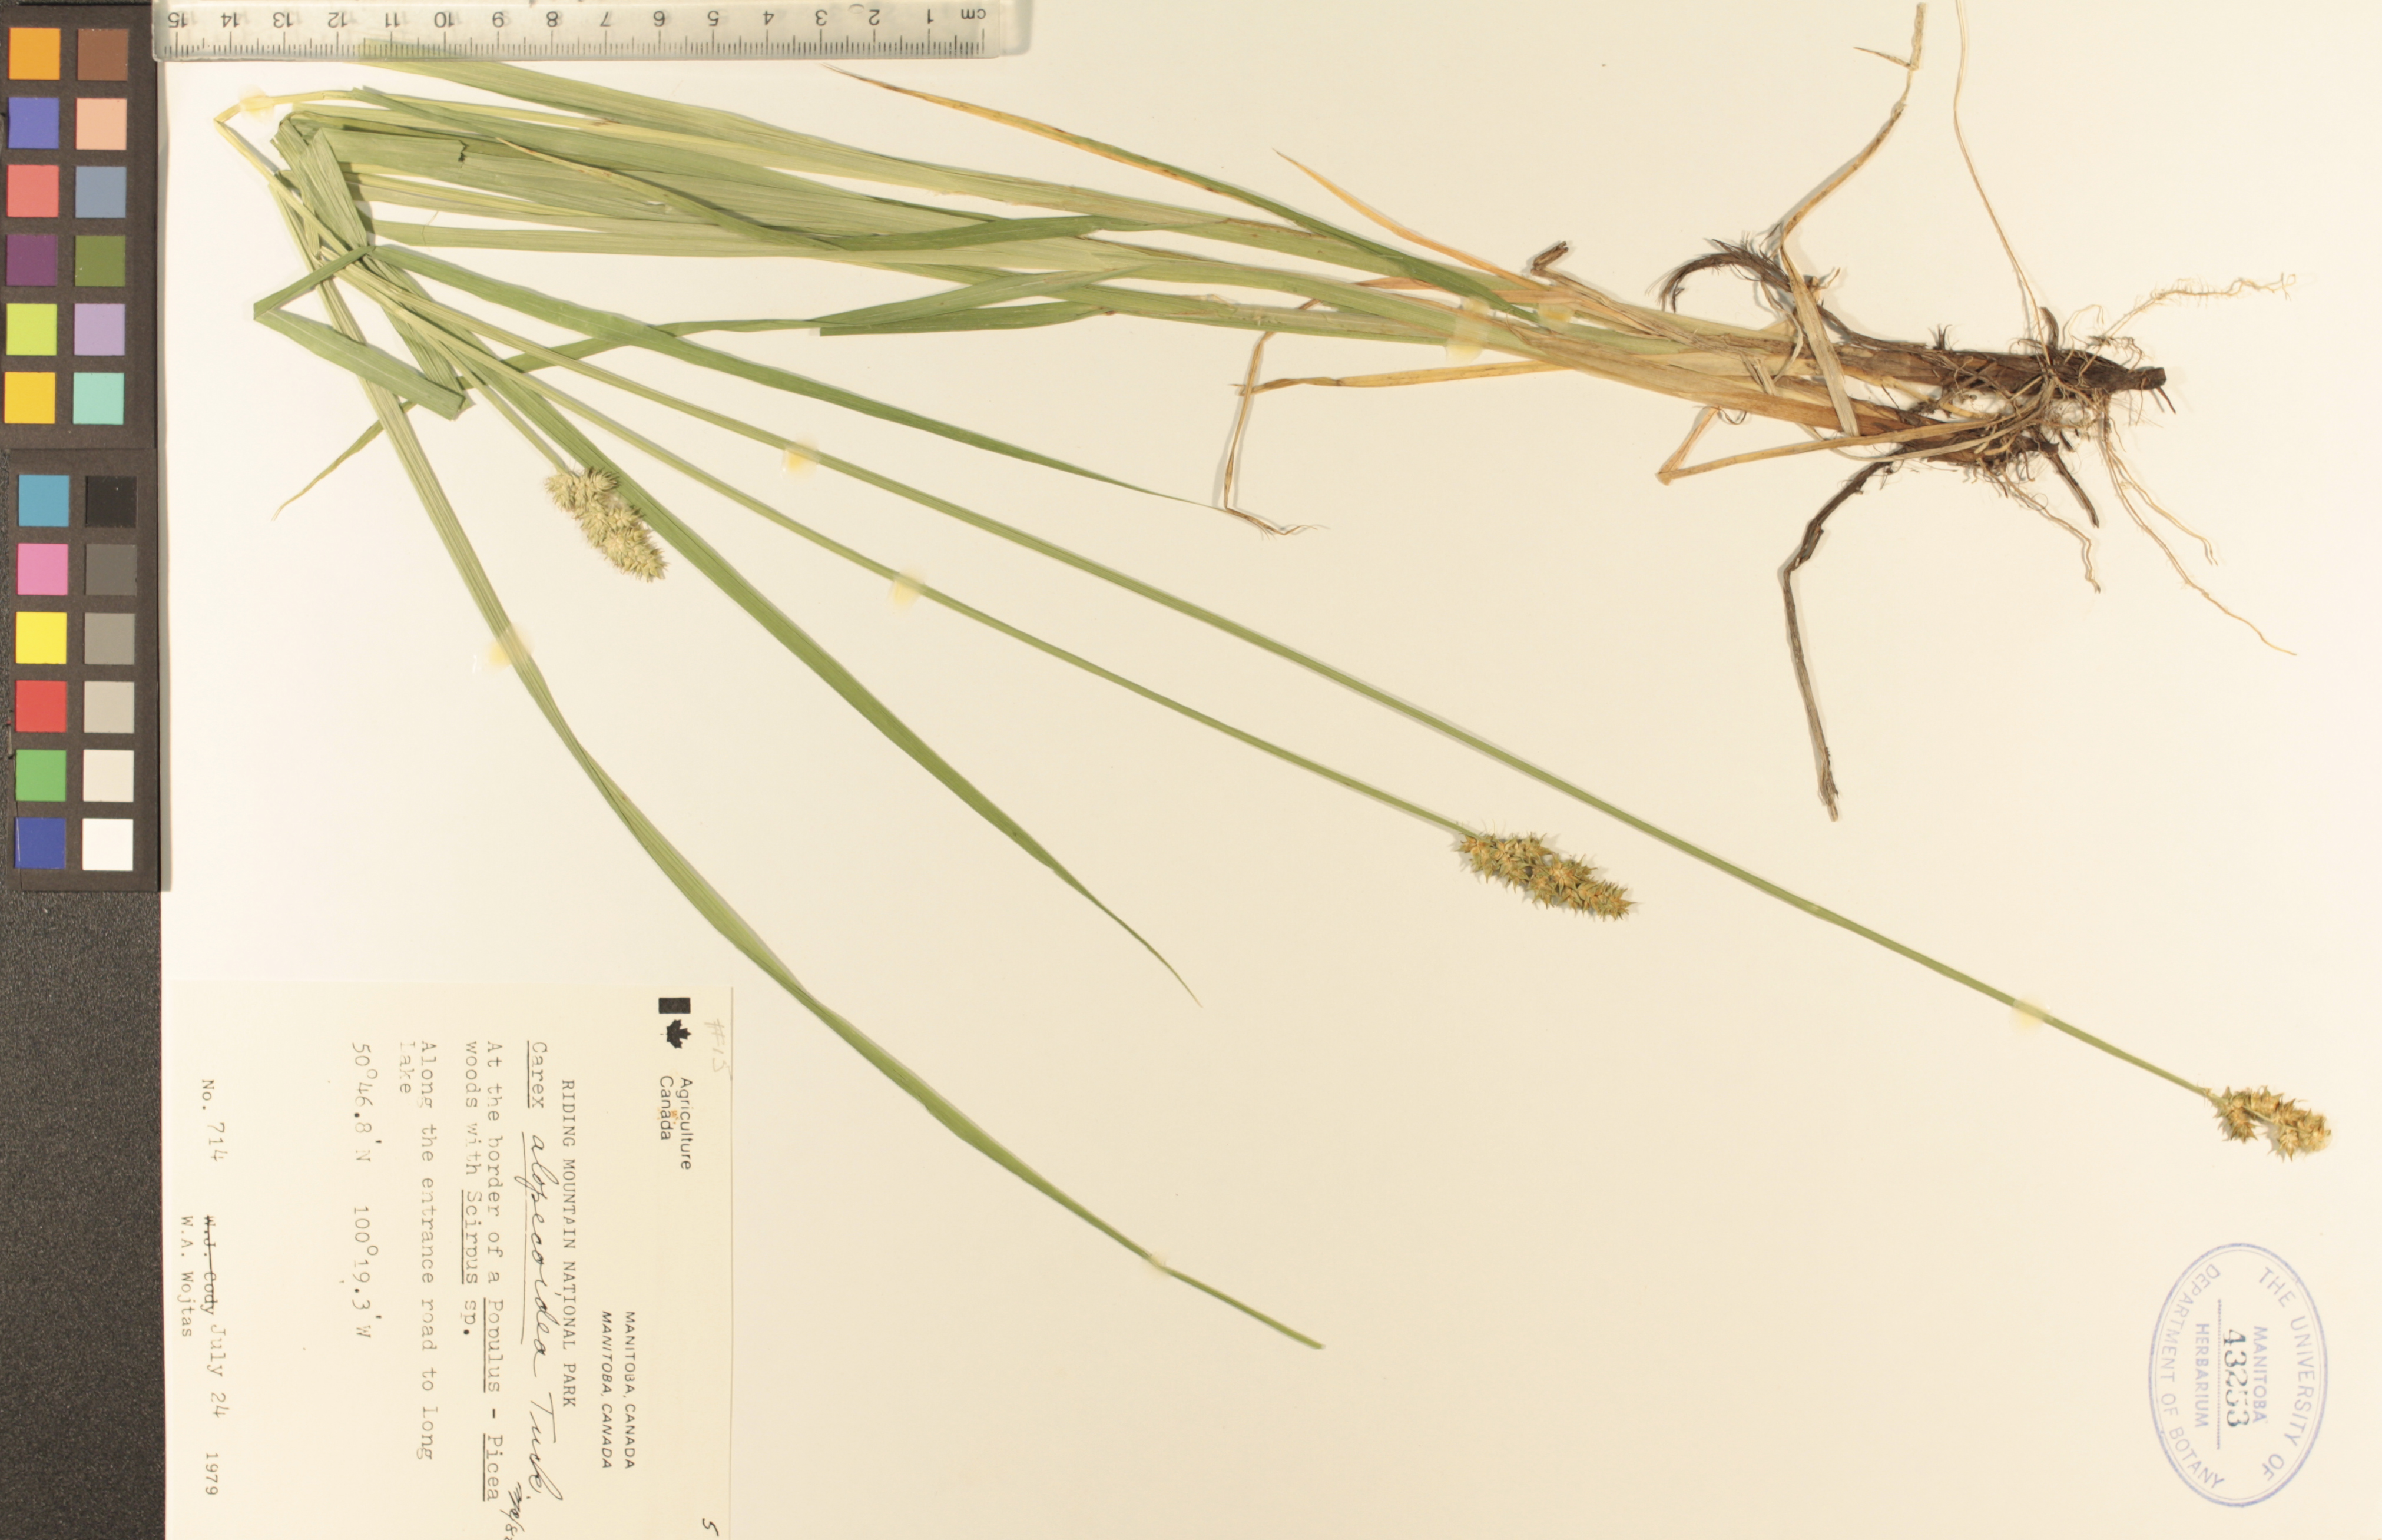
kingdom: Plantae
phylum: Tracheophyta
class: Liliopsida
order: Poales
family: Cyperaceae
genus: Carex
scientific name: Carex alopecoidea
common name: Brown-headed fox sedge
